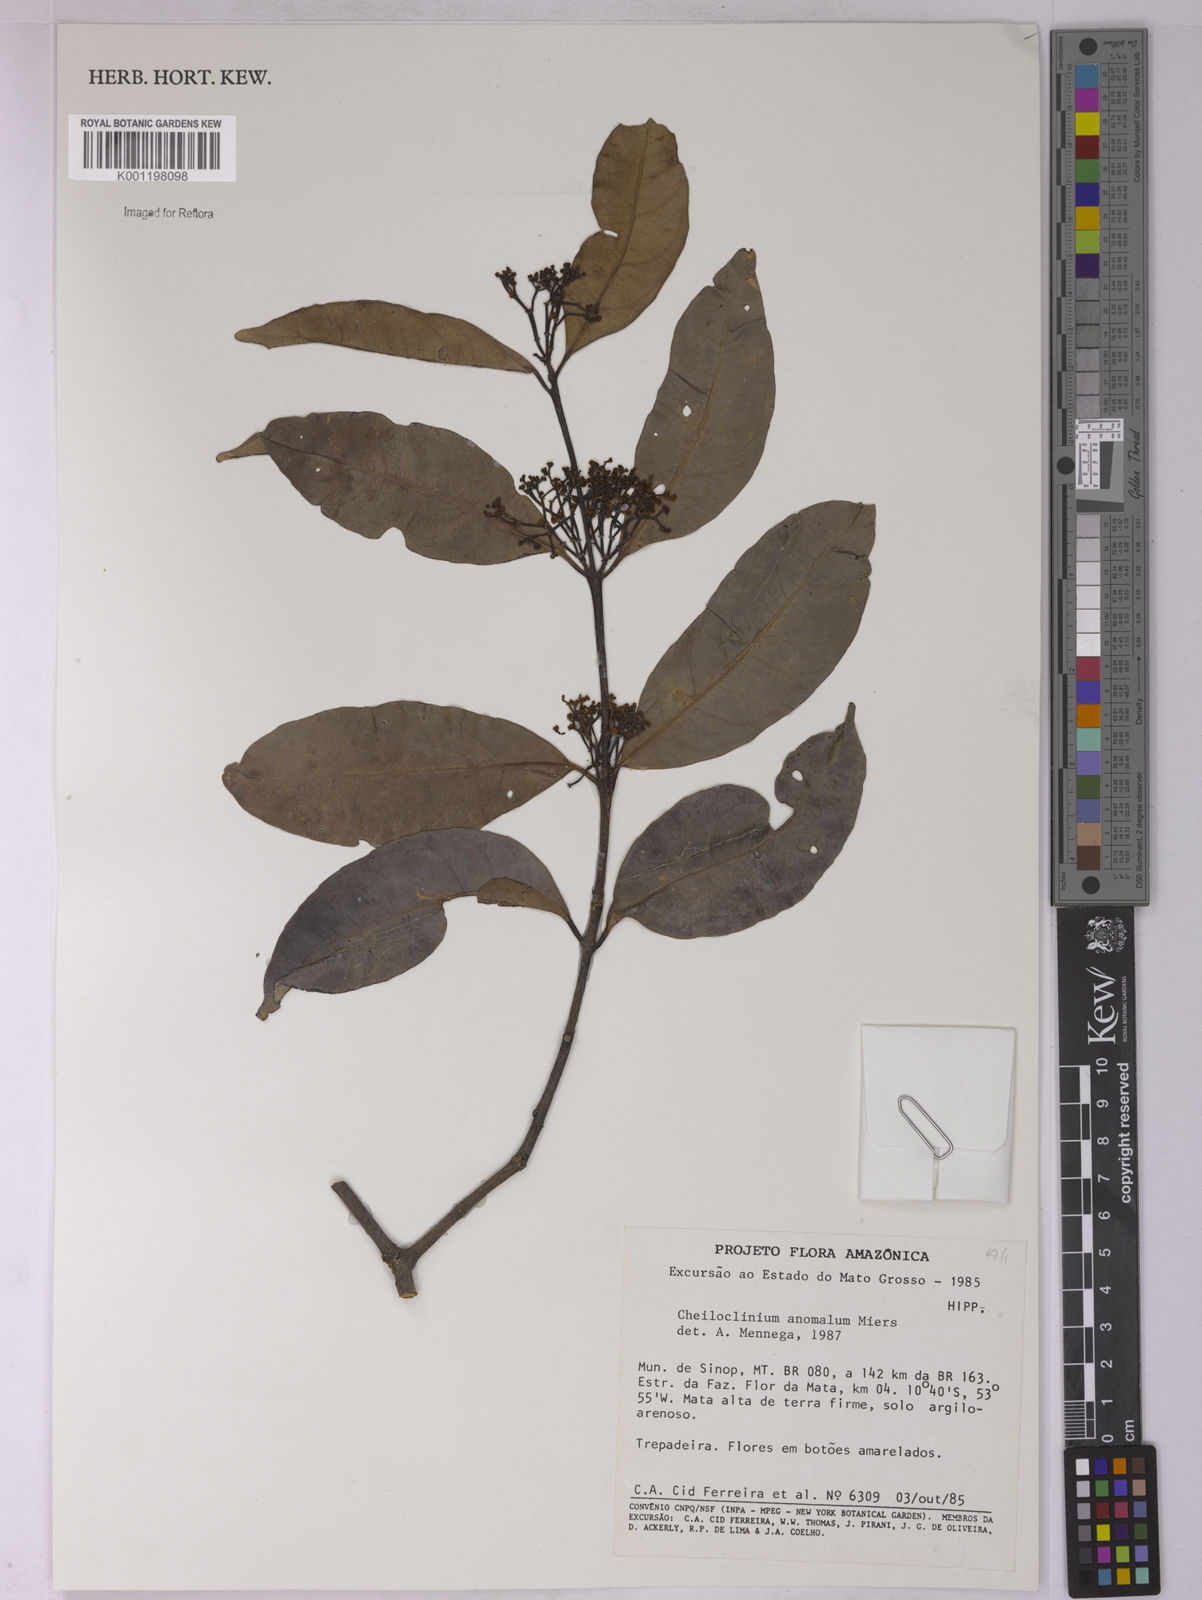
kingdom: Plantae
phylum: Tracheophyta
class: Magnoliopsida
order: Celastrales
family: Celastraceae
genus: Cheiloclinium
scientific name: Cheiloclinium anomalum
